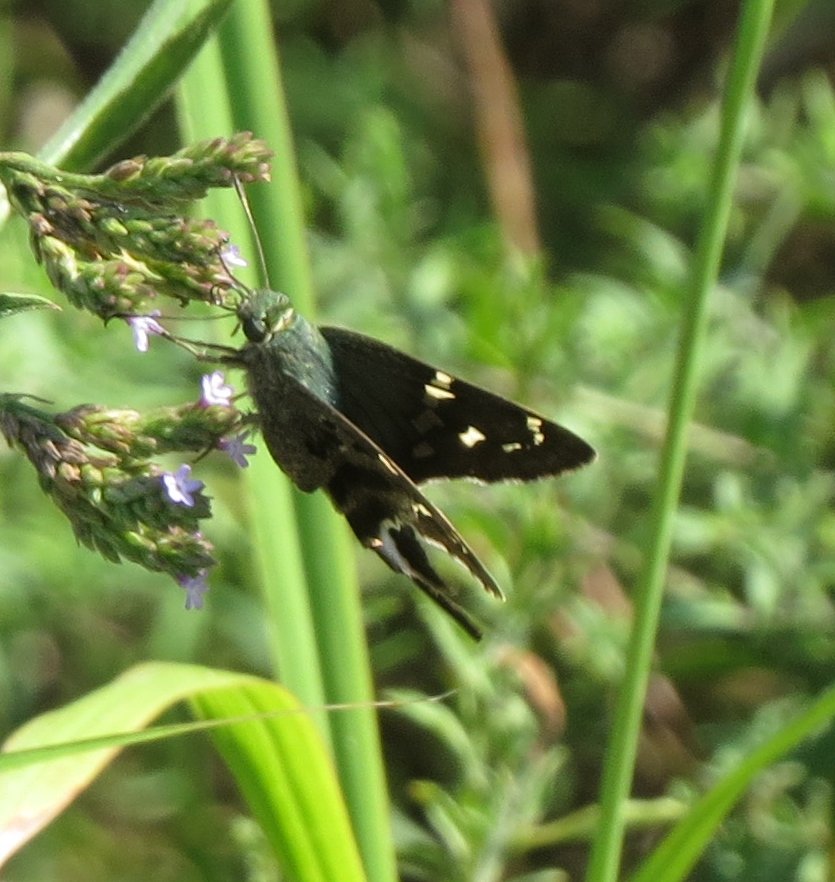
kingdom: Animalia
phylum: Arthropoda
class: Insecta
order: Lepidoptera
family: Hesperiidae
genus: Urbanus
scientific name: Urbanus proteus
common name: Long-tailed Skipper
